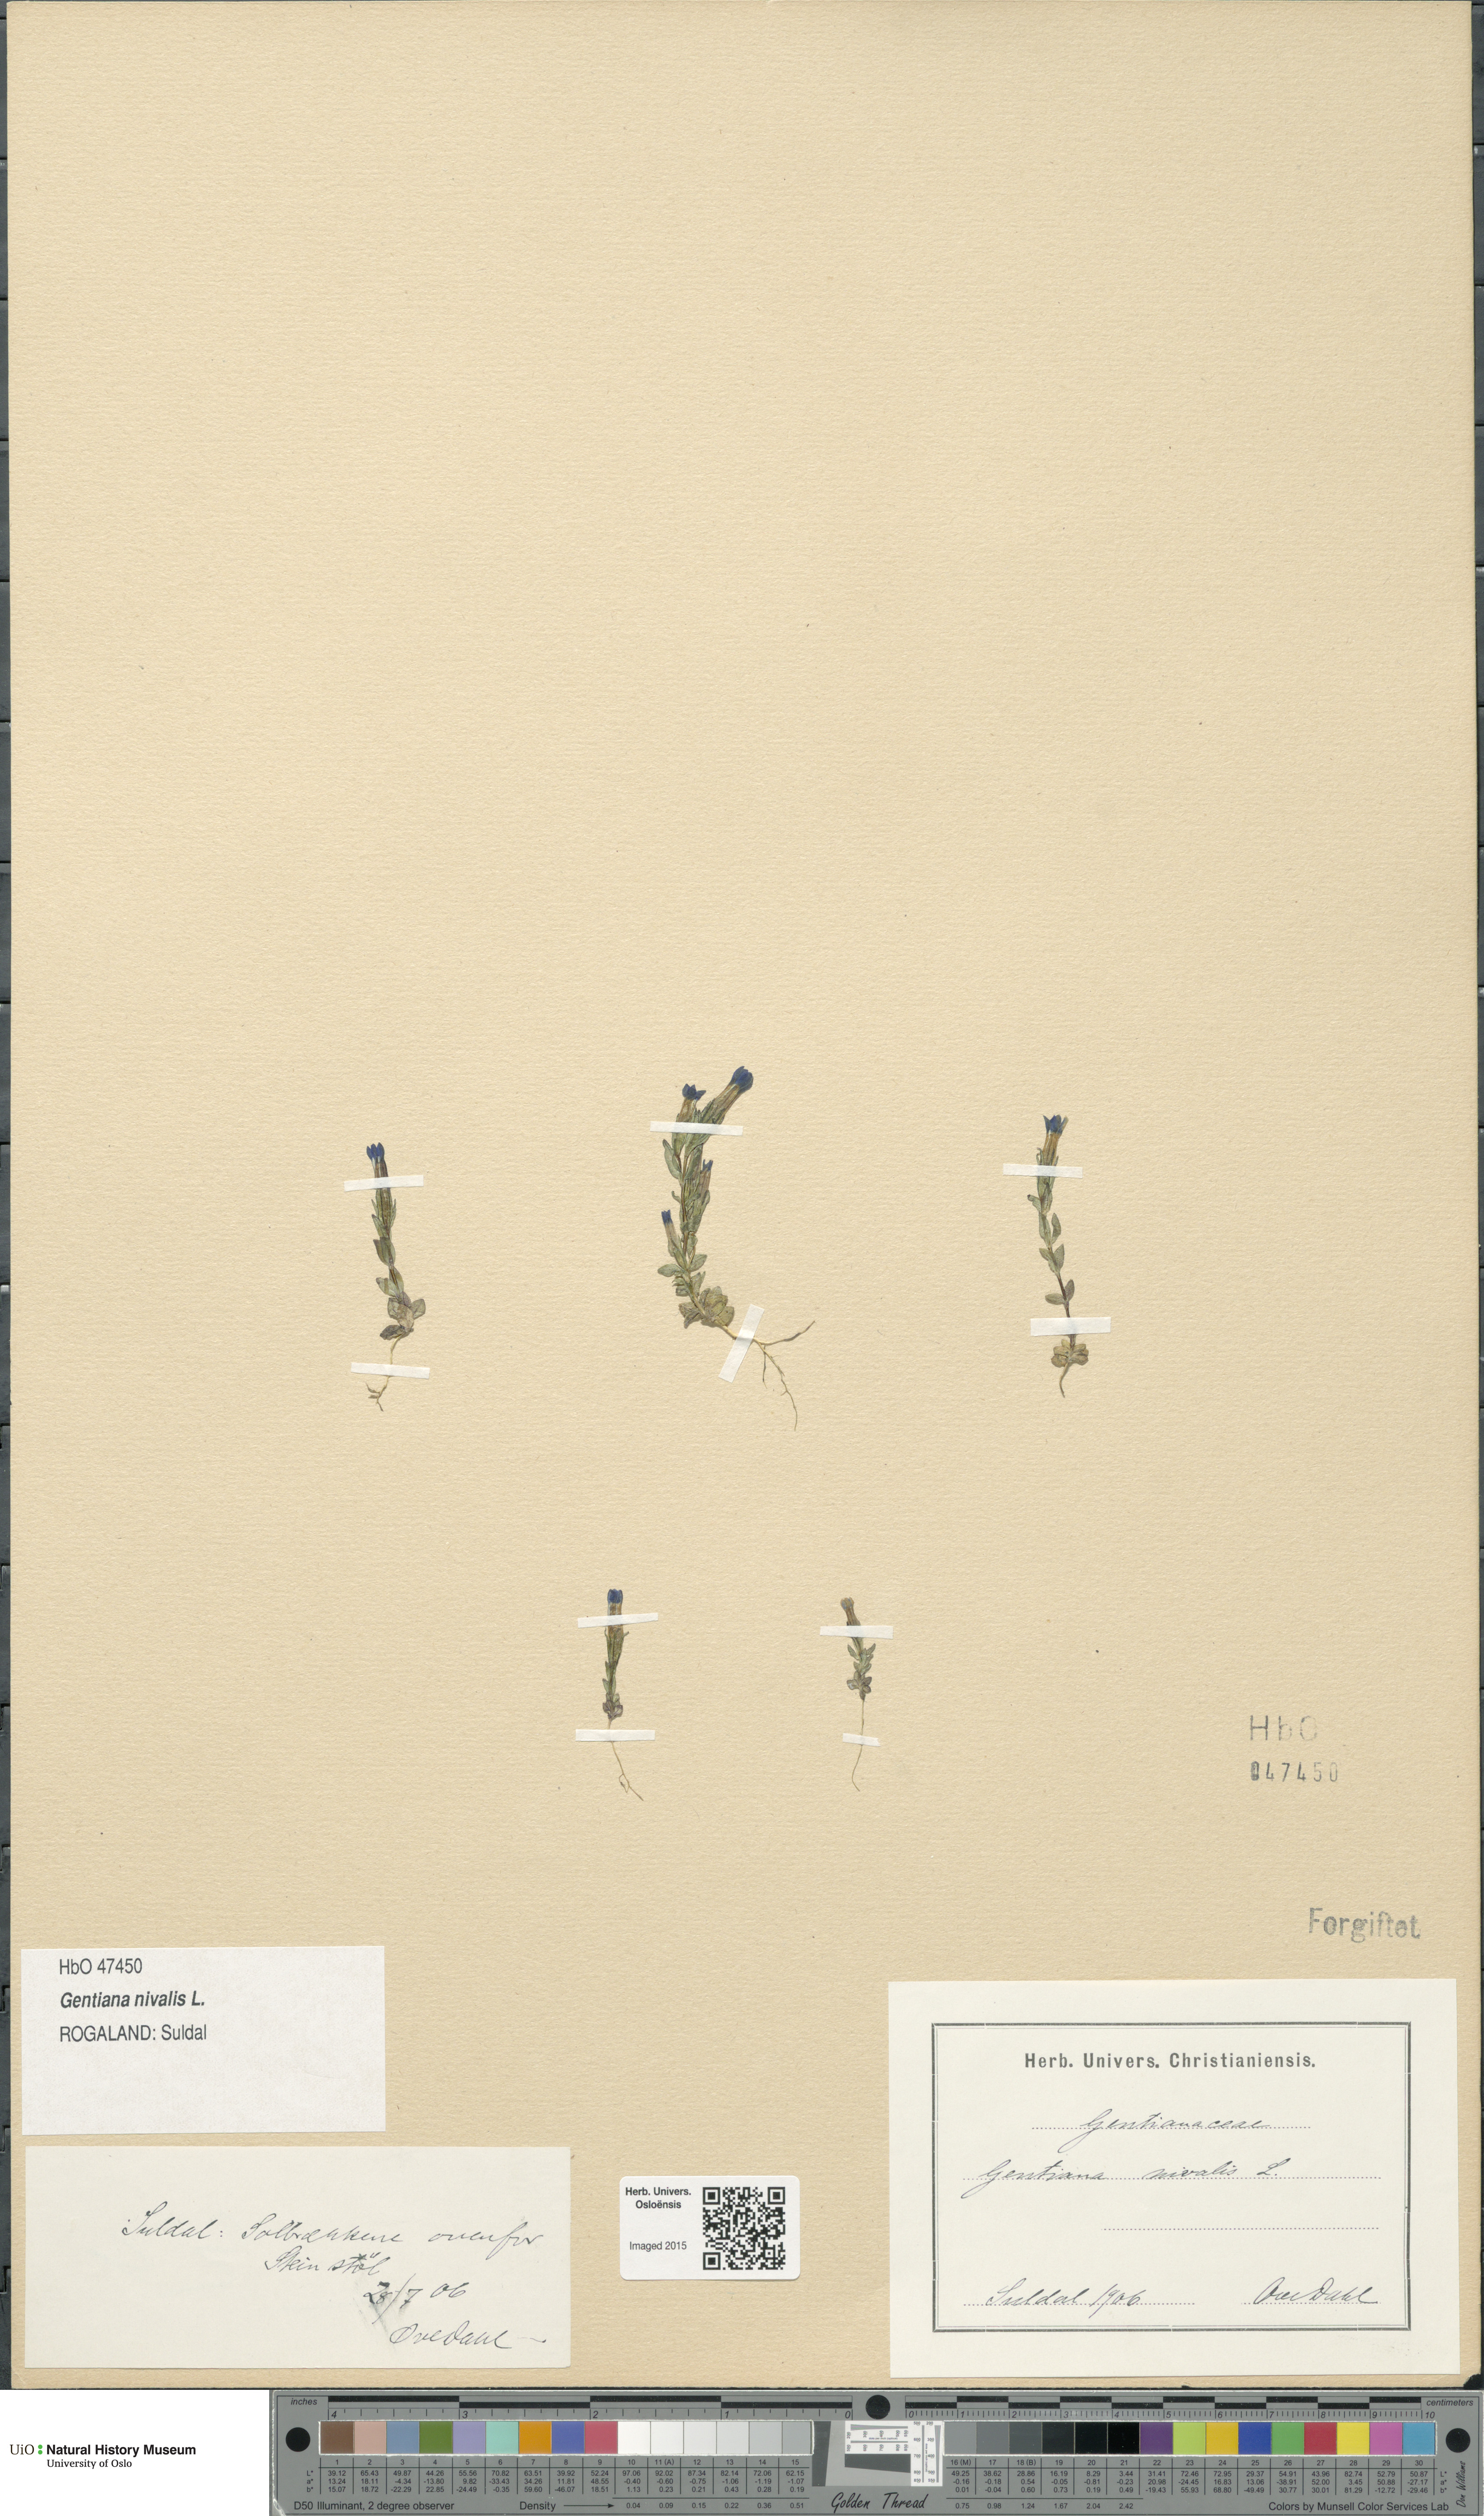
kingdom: Plantae
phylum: Tracheophyta
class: Magnoliopsida
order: Gentianales
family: Gentianaceae
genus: Gentiana
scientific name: Gentiana nivalis
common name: Alpine gentian
